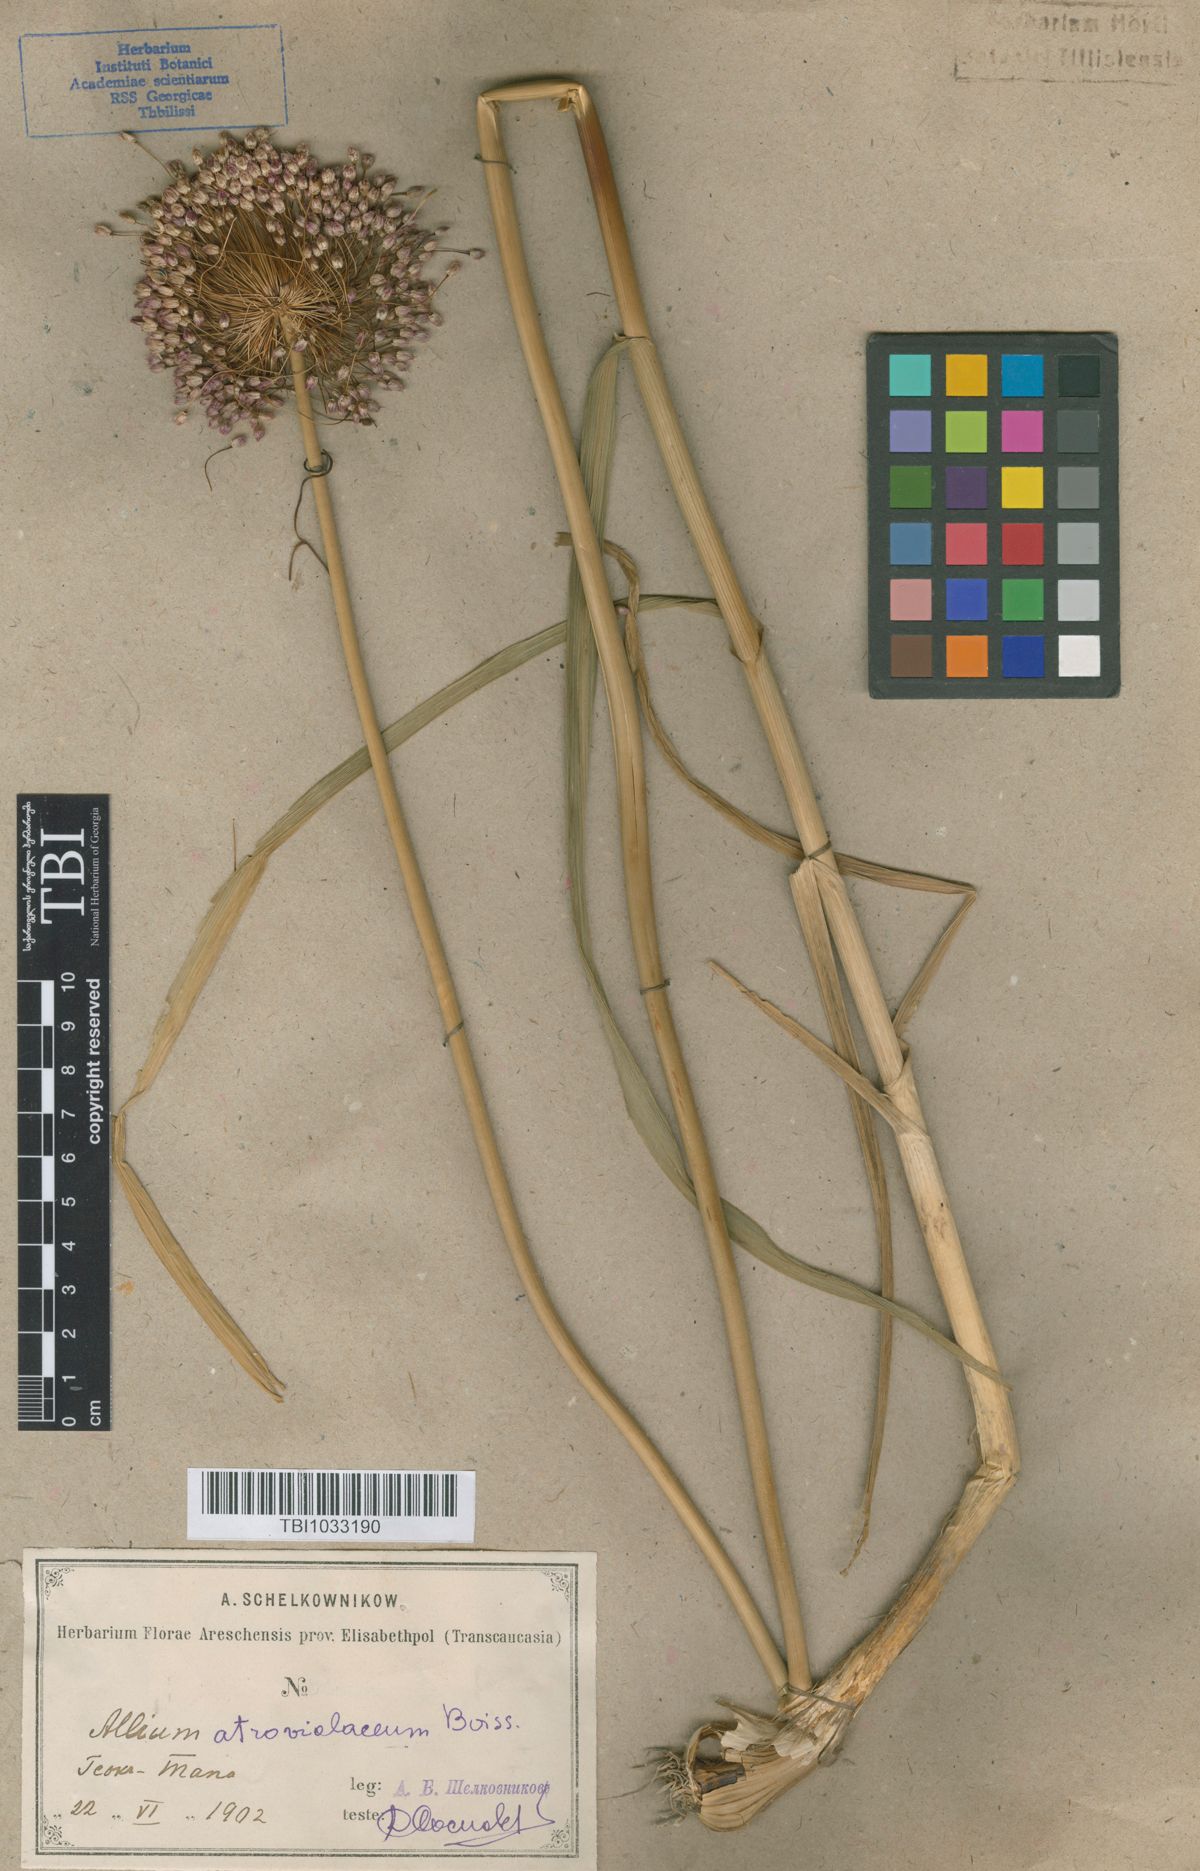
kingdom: Plantae
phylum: Tracheophyta
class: Liliopsida
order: Asparagales
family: Amaryllidaceae
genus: Allium
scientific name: Allium atroviolaceum
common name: Broadleaf wild leek
